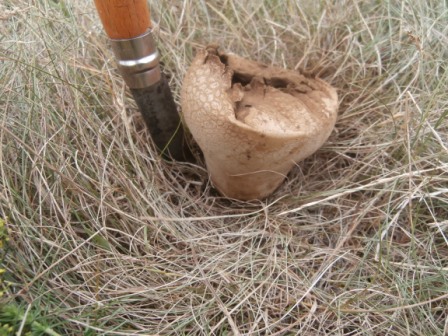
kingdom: Fungi
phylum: Basidiomycota
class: Agaricomycetes
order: Agaricales
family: Lycoperdaceae
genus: Bovistella
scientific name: Bovistella utriformis
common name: skællet støvbold
